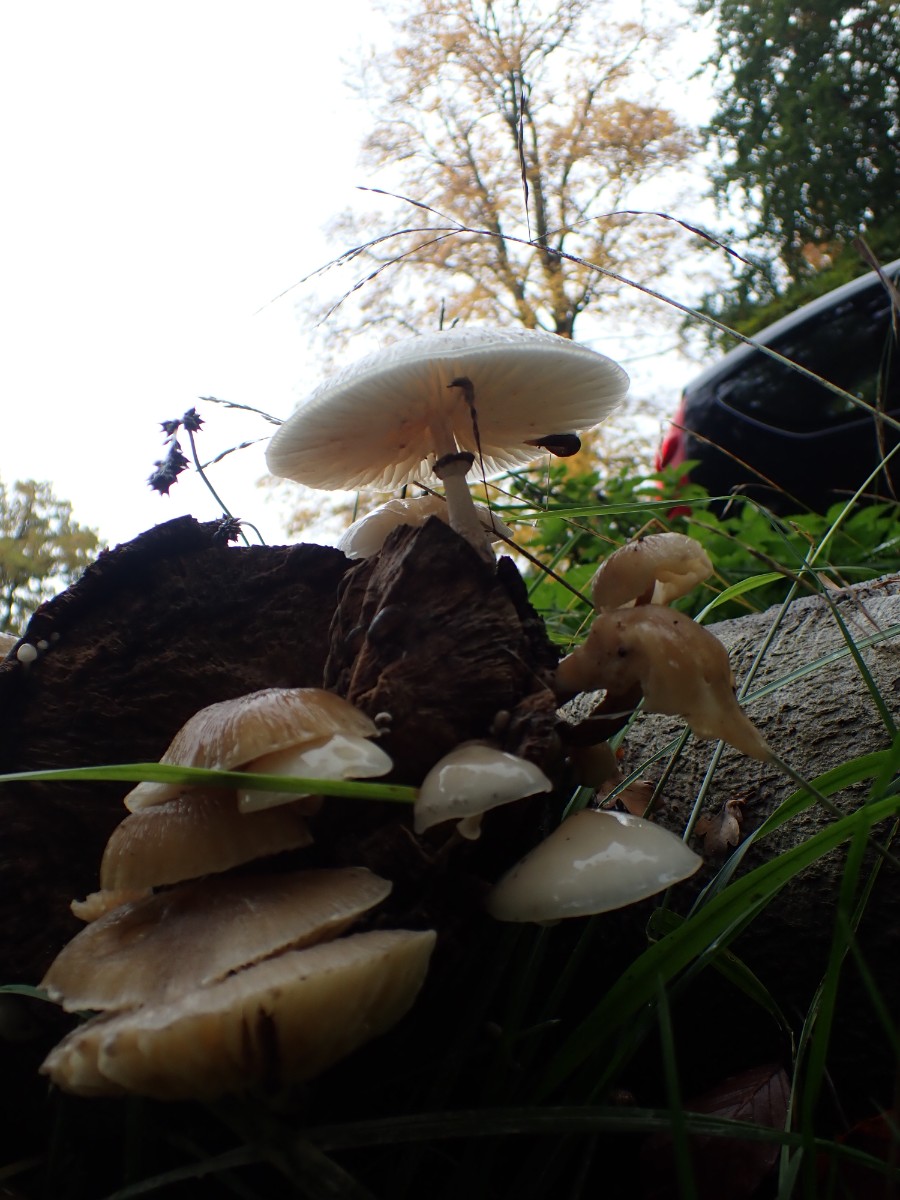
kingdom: Fungi
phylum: Basidiomycota
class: Agaricomycetes
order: Agaricales
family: Physalacriaceae
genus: Mucidula
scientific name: Mucidula mucida
